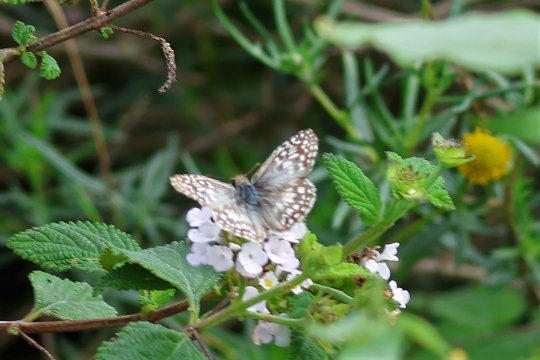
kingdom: Animalia
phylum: Arthropoda
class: Insecta
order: Lepidoptera
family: Hesperiidae
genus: Pyrgus
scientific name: Pyrgus oileus
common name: Desert Checkered-Skipper
